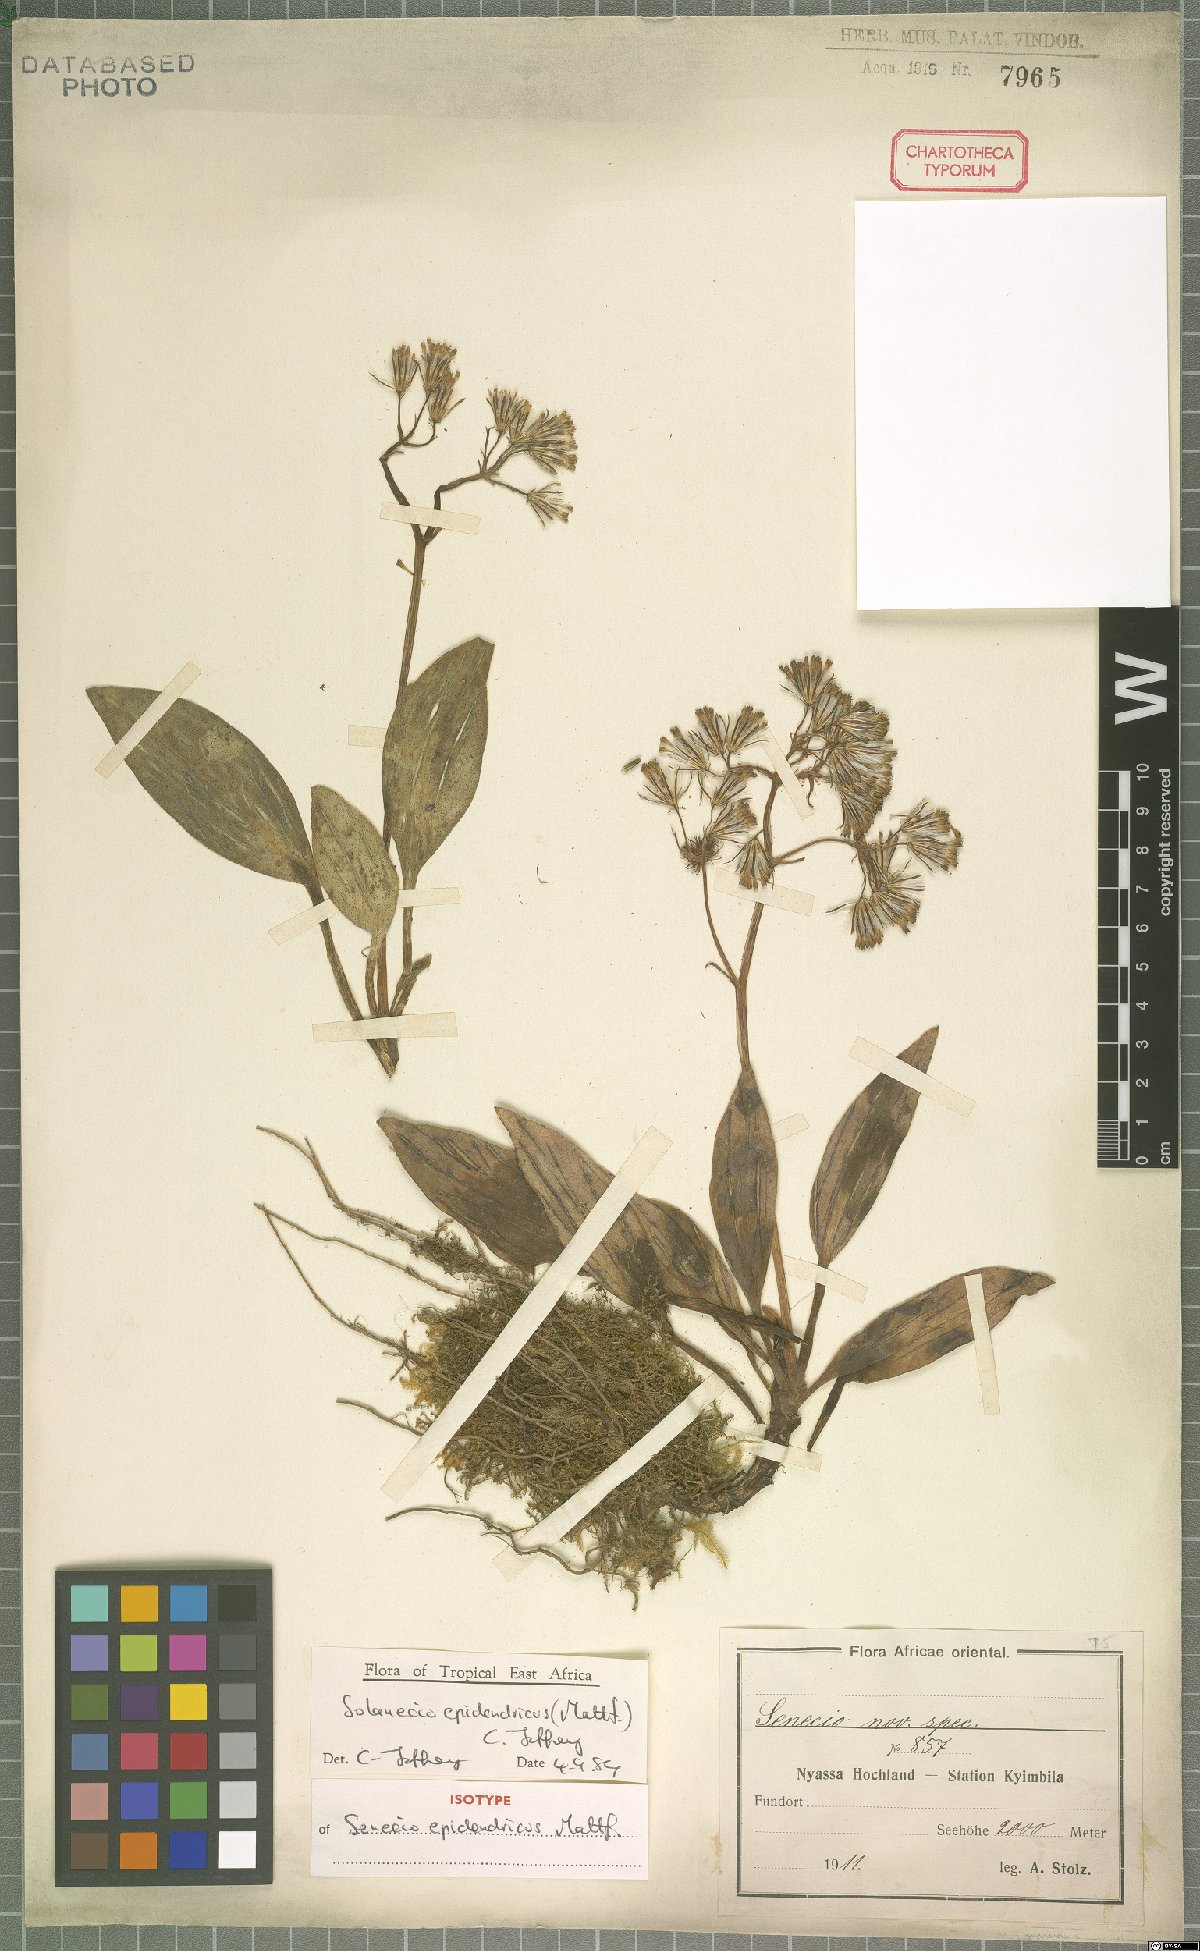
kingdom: Plantae
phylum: Tracheophyta
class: Magnoliopsida
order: Asterales
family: Asteraceae
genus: Solanecio
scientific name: Solanecio epidendricus
